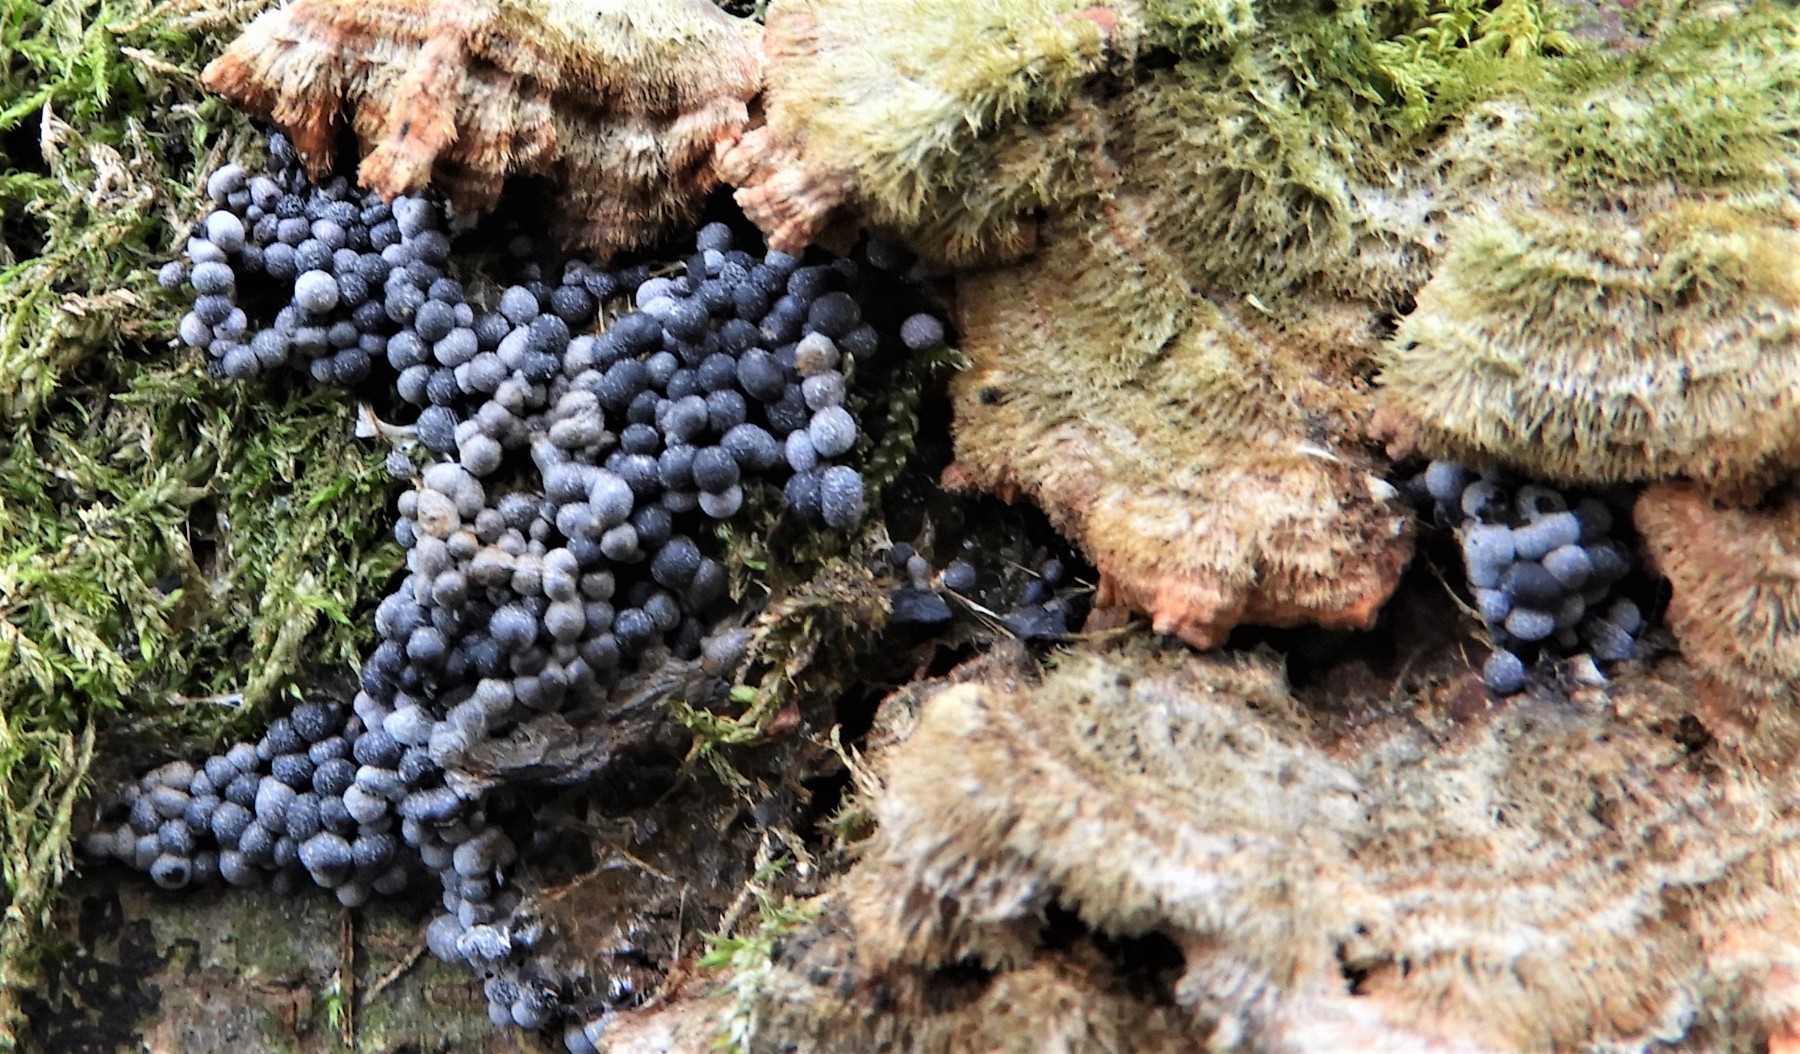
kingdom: Protozoa
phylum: Mycetozoa
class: Myxomycetes
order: Physarales
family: Physaraceae
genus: Badhamia
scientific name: Badhamia utricularis
